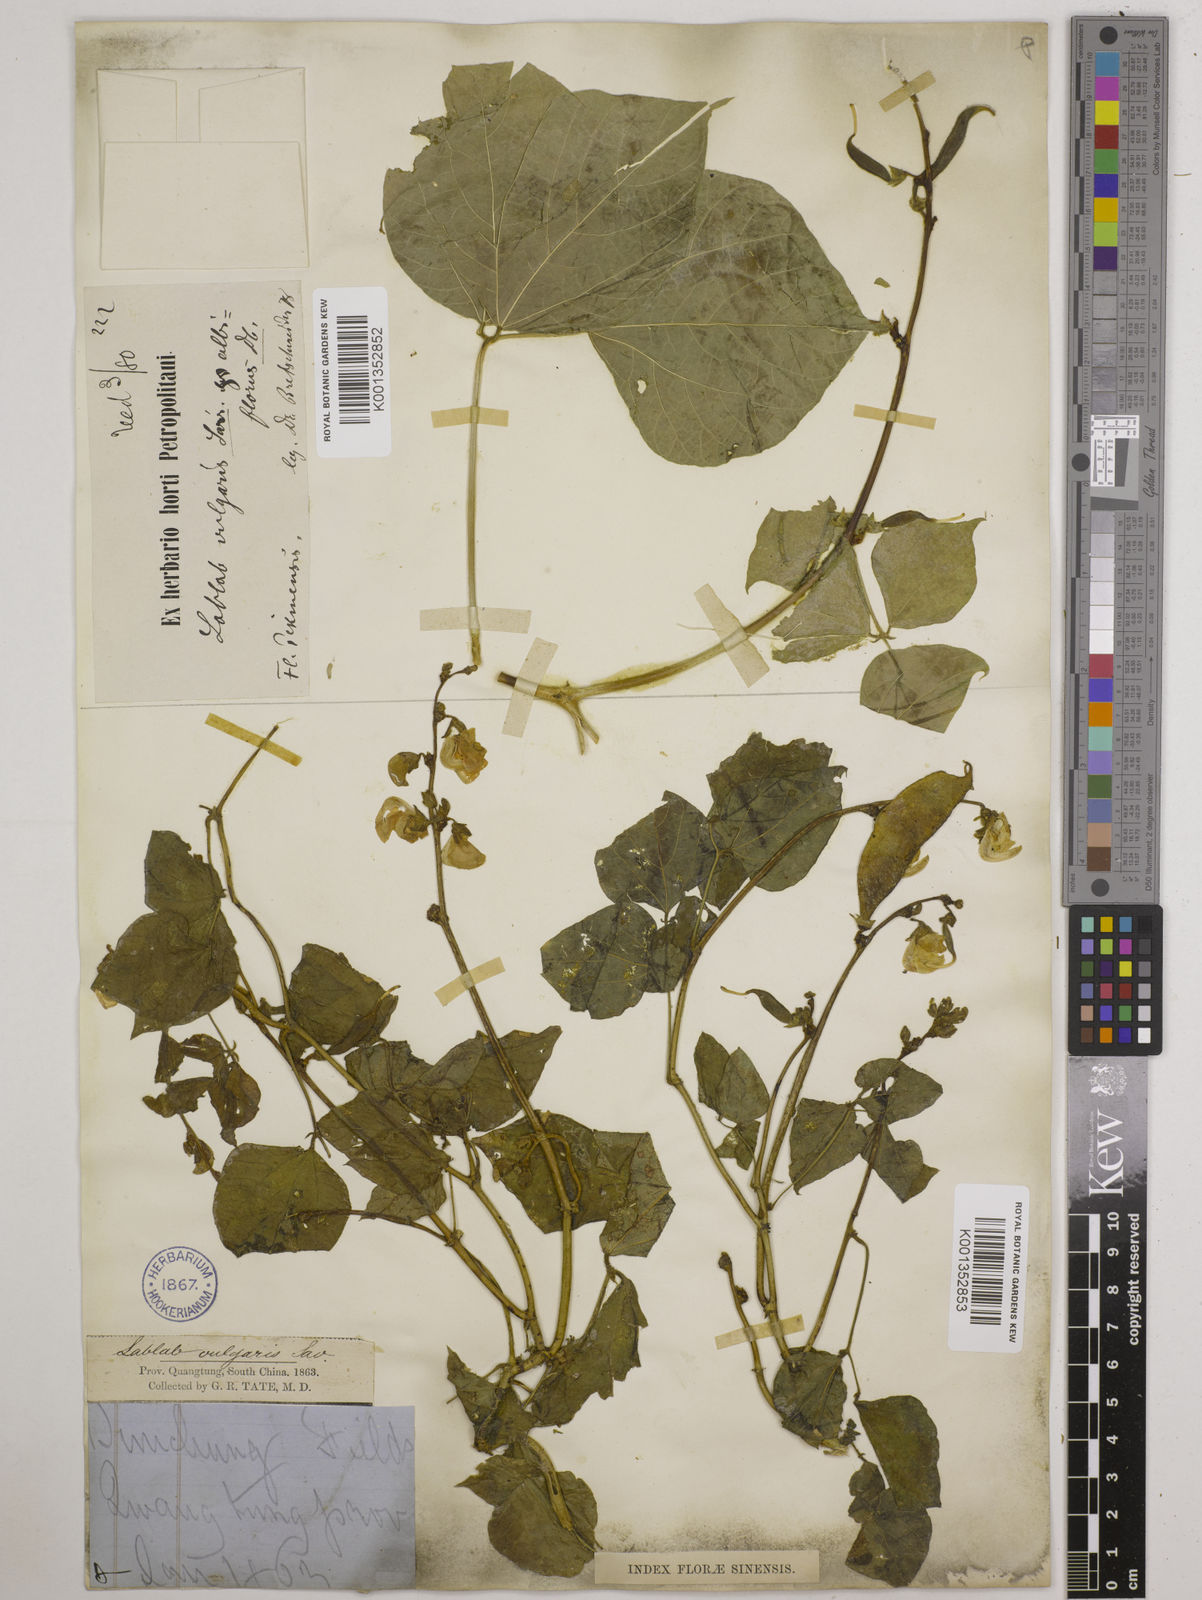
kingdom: Plantae
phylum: Tracheophyta
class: Magnoliopsida
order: Fabales
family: Fabaceae
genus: Lablab
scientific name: Lablab purpureus
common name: Lablab-bean
